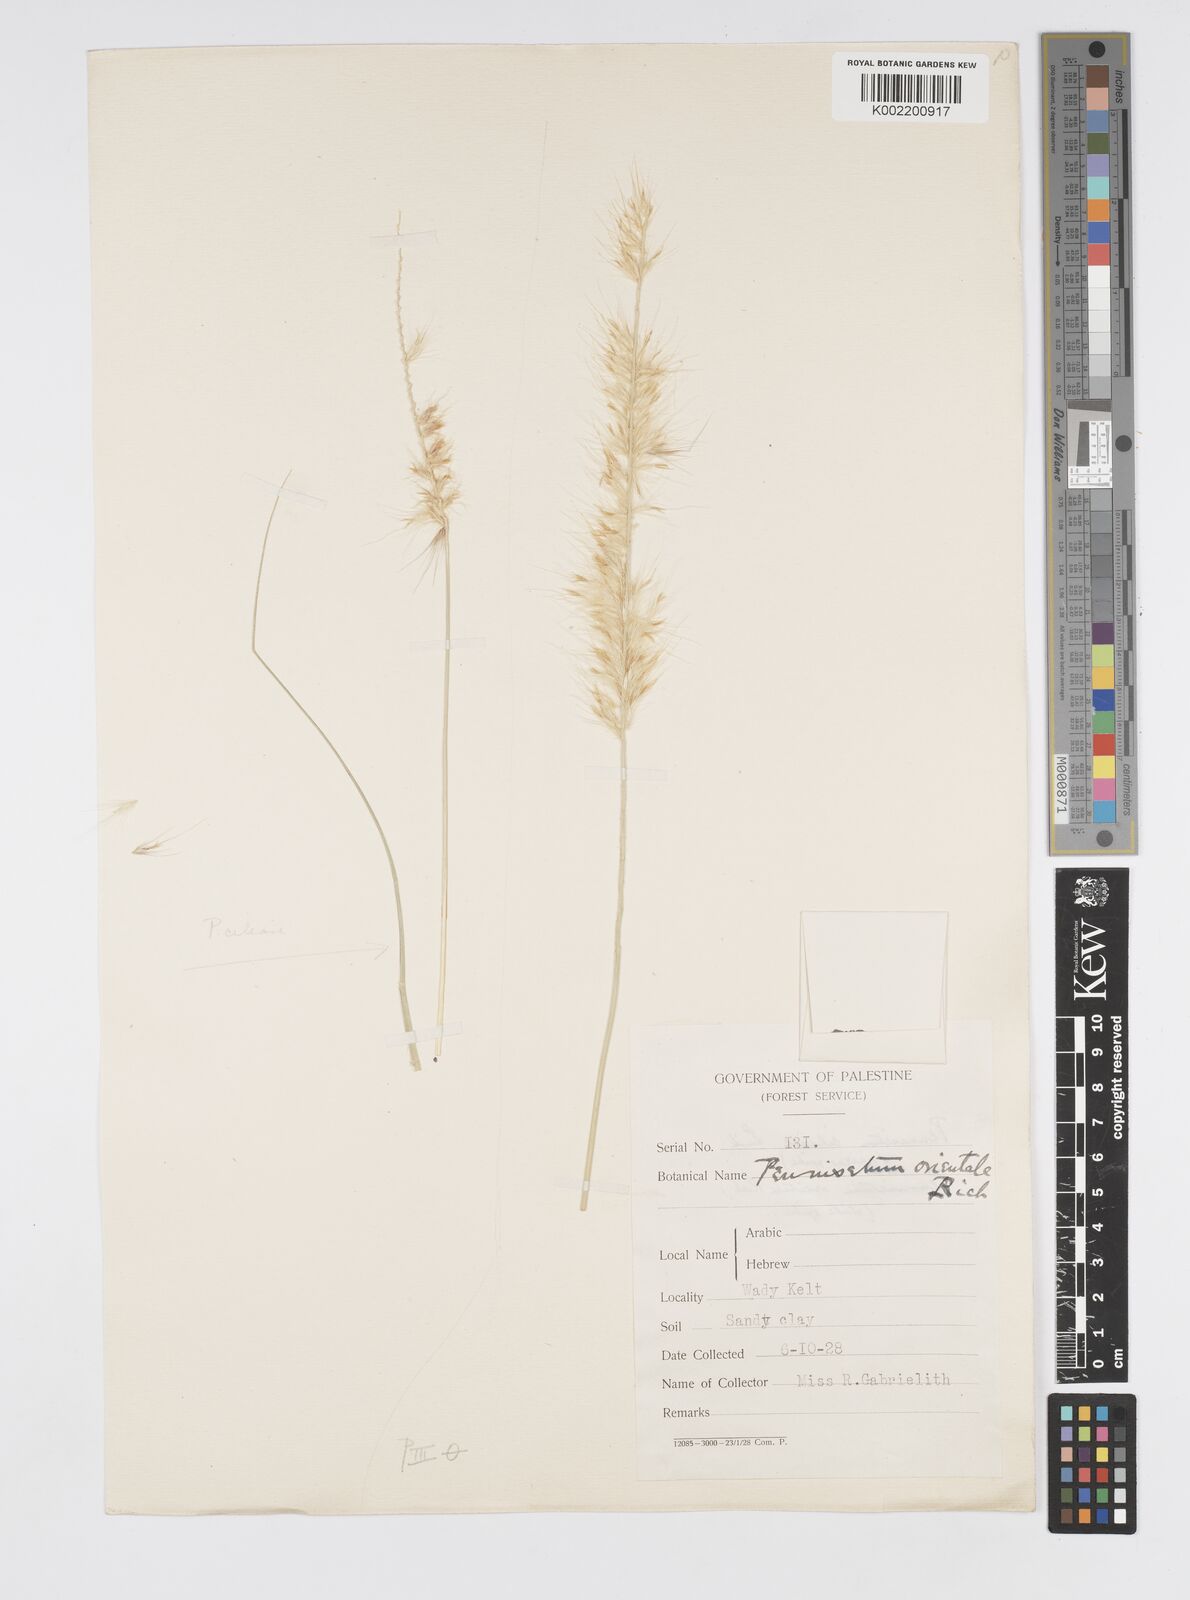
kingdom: Plantae
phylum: Tracheophyta
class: Liliopsida
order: Poales
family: Poaceae
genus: Cenchrus
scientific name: Cenchrus setaceus
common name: Crimson fountaingrass
